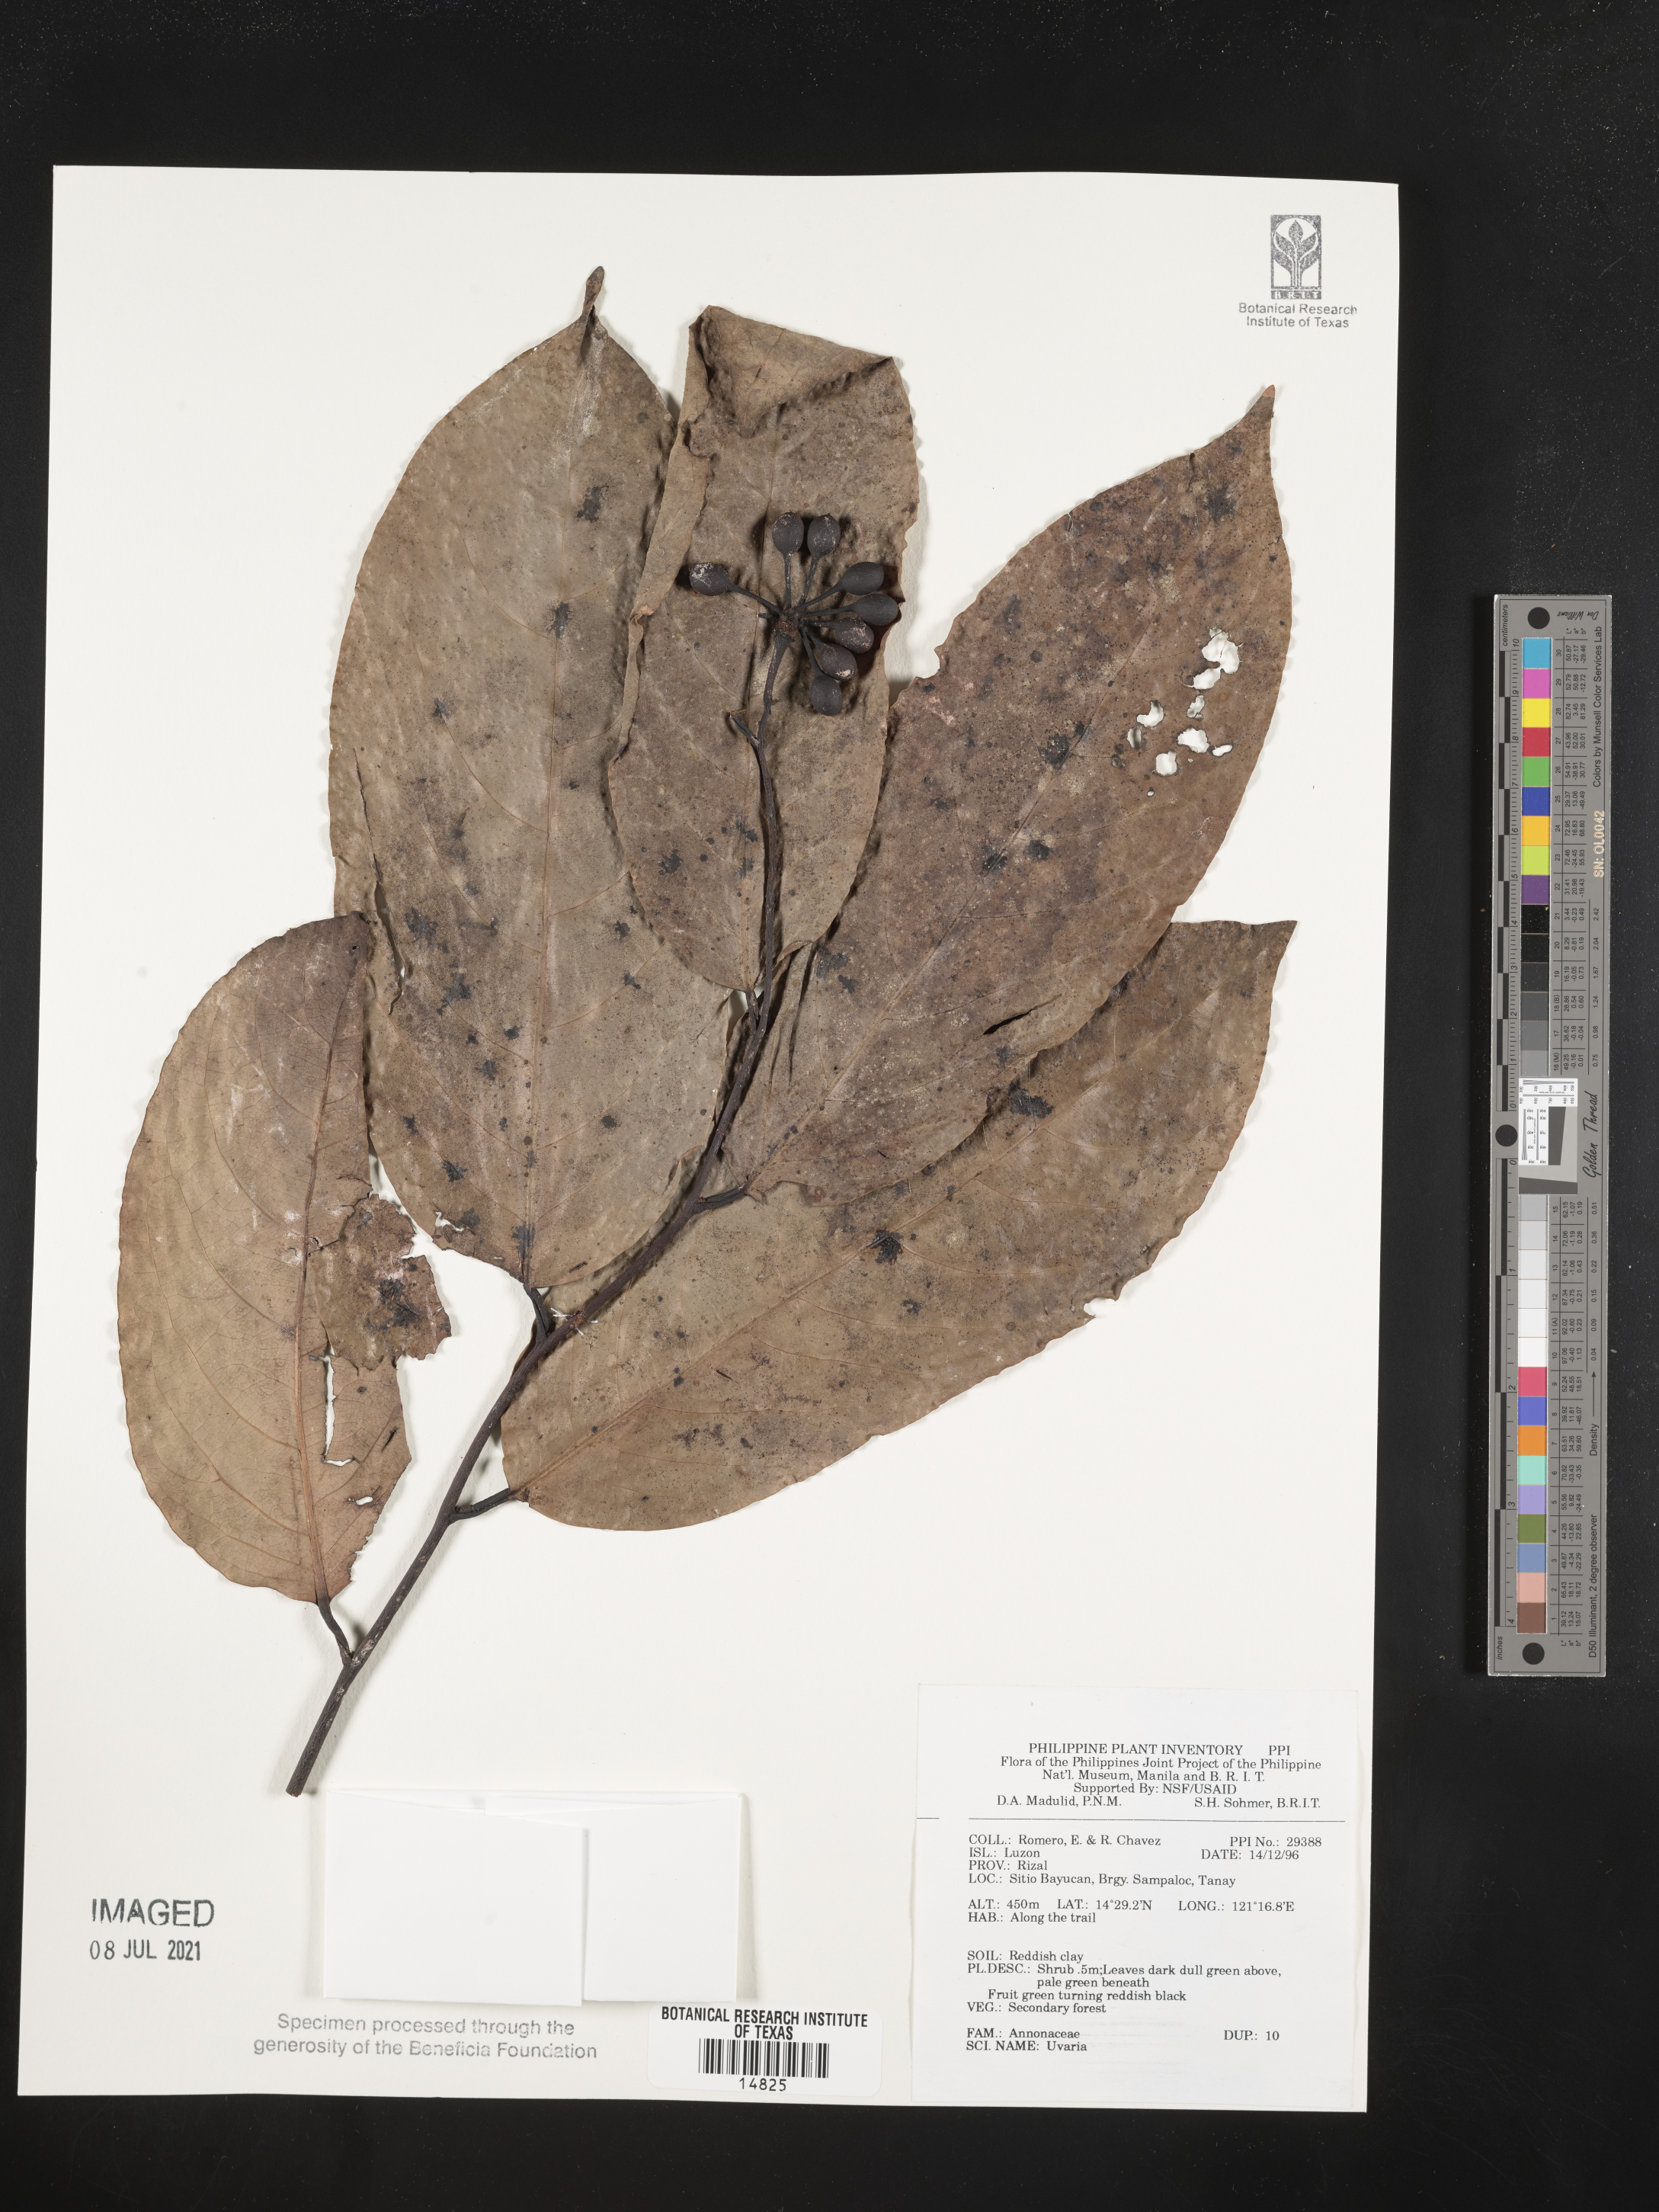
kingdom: Plantae
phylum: Tracheophyta
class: Magnoliopsida
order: Magnoliales
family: Annonaceae
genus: Uvaria
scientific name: Uvaria
